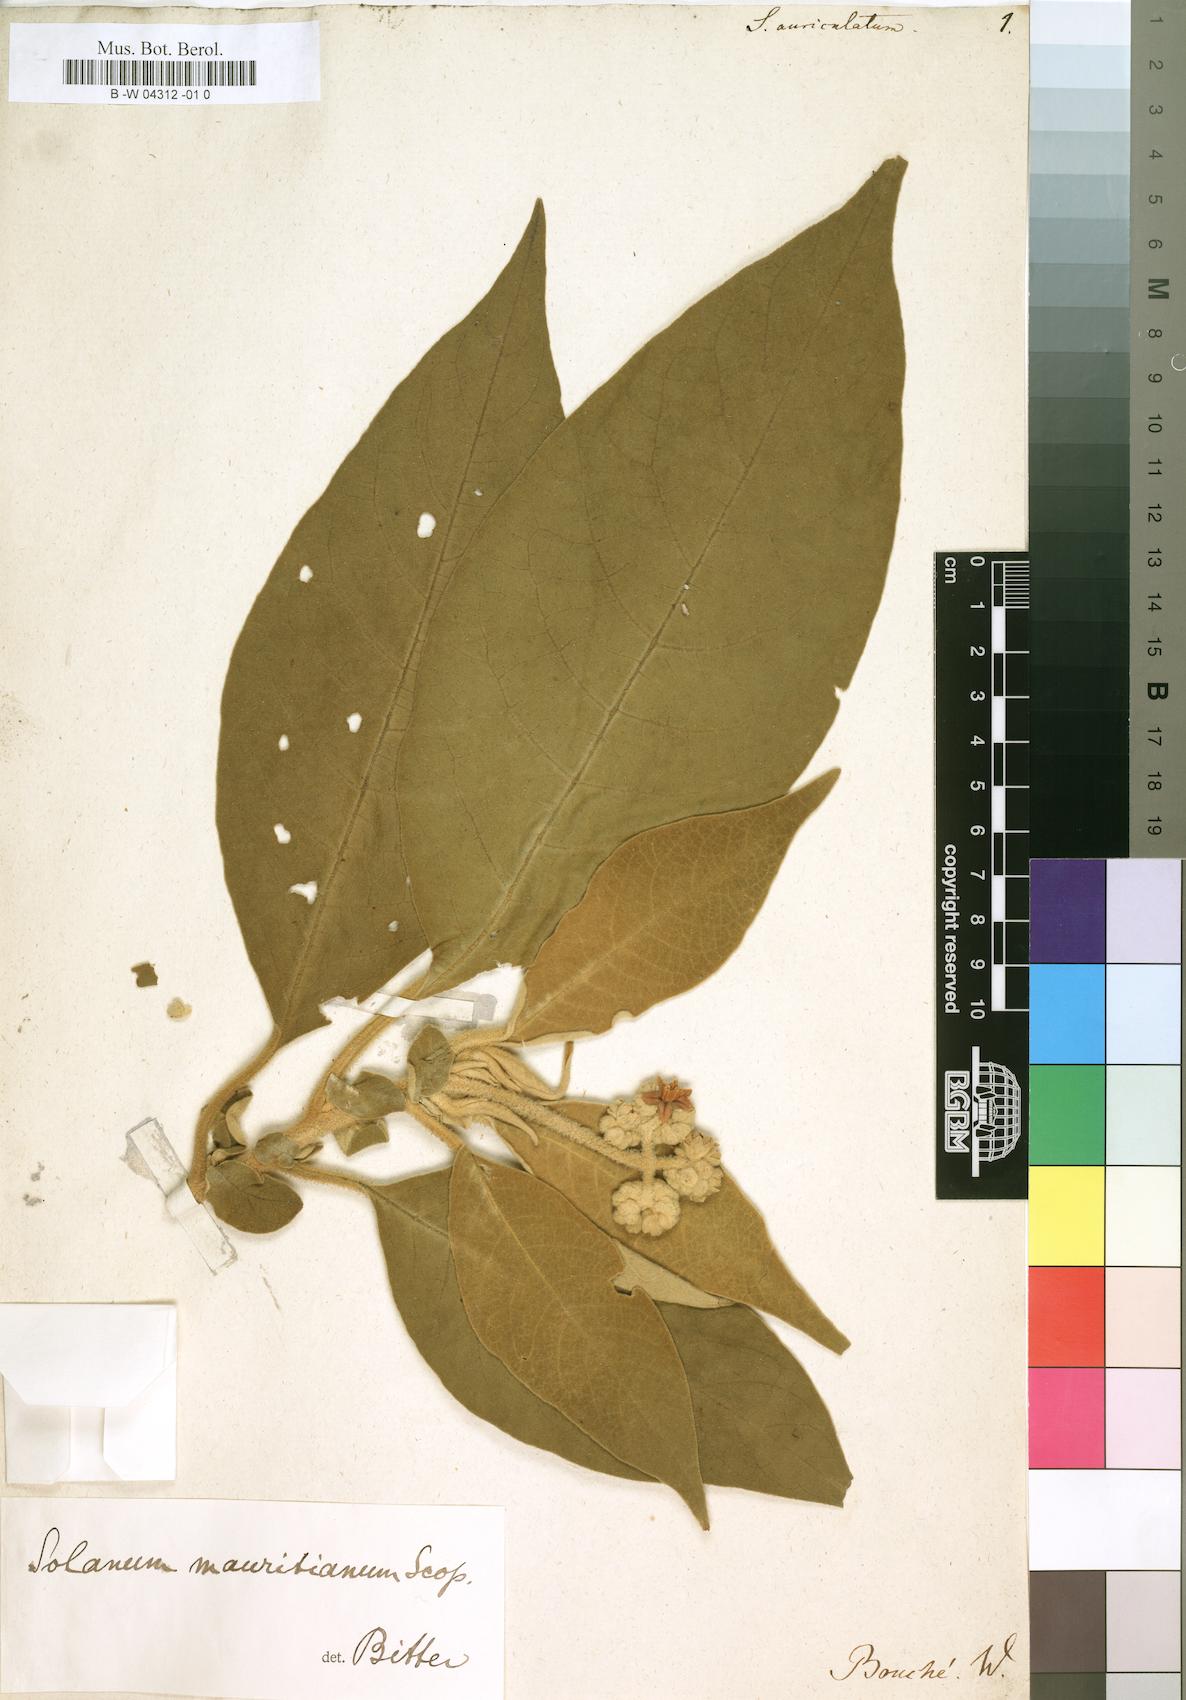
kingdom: Plantae
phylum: Tracheophyta
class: Magnoliopsida
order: Solanales
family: Solanaceae
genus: Solanum
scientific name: Solanum
